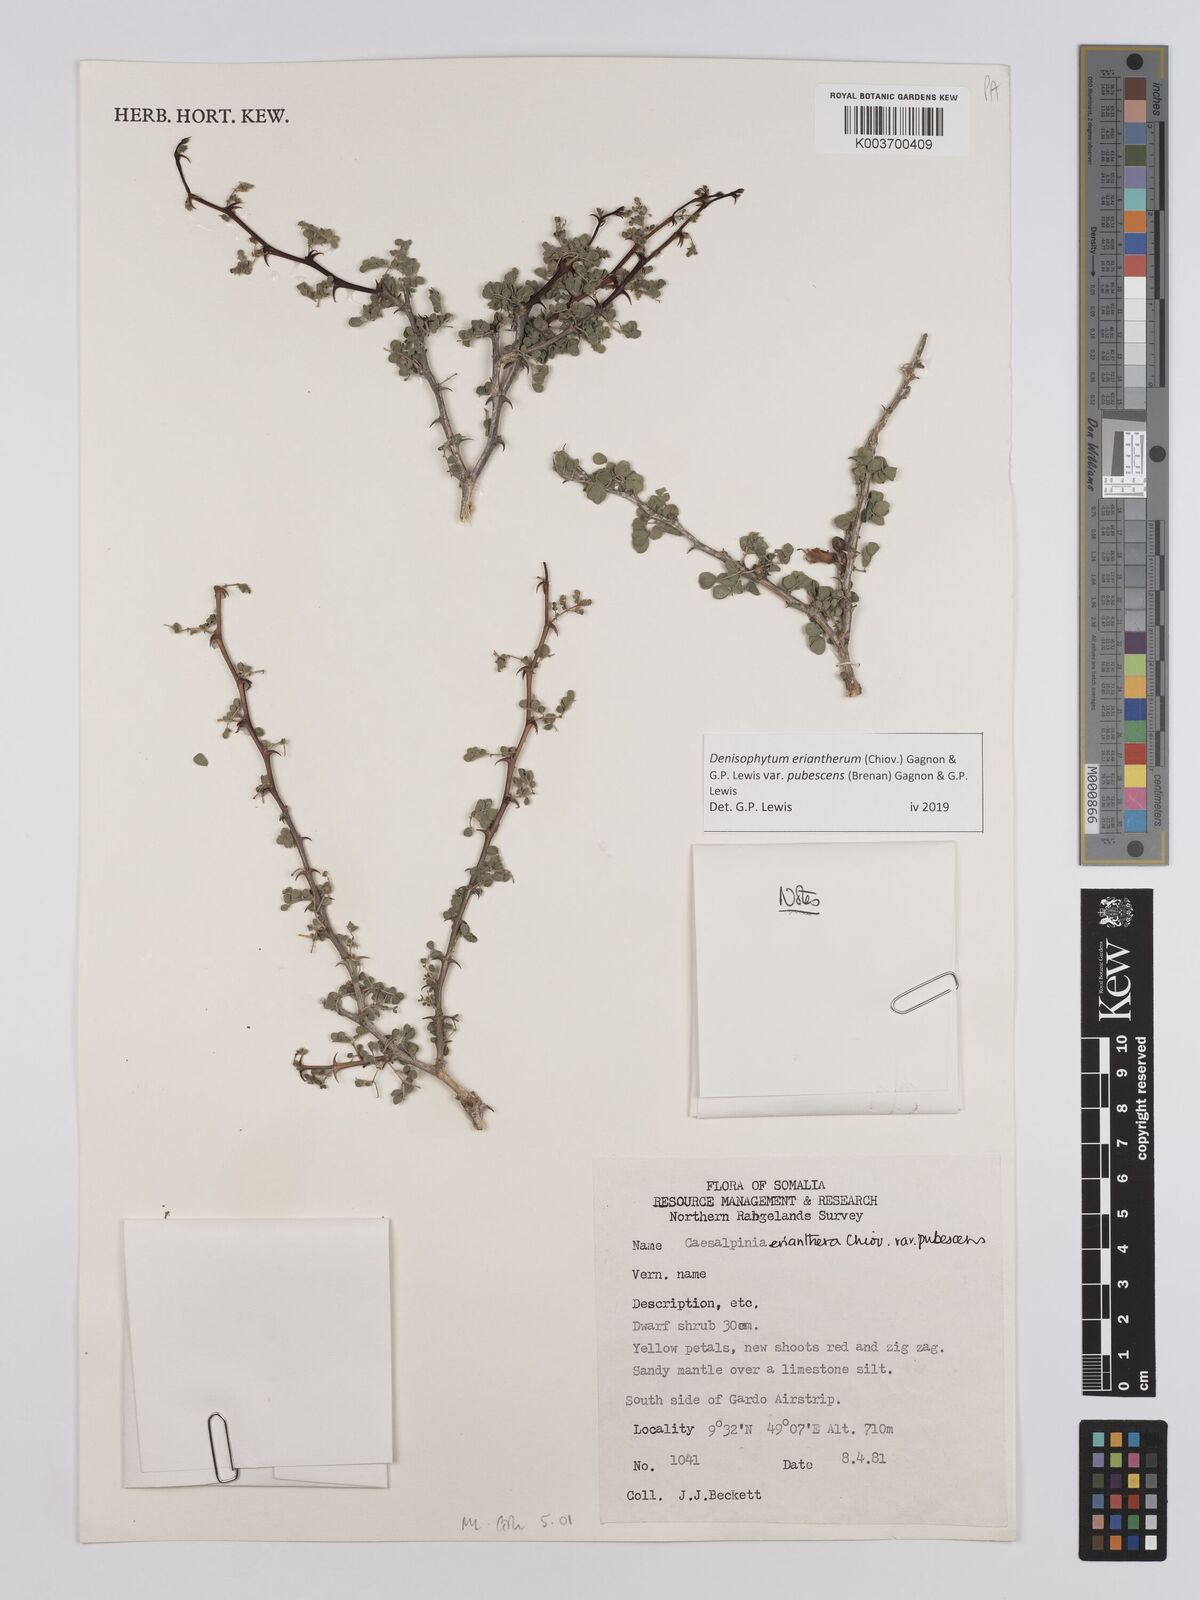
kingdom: Plantae
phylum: Tracheophyta
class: Magnoliopsida
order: Fabales
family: Fabaceae
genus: Denisophytum
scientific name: Denisophytum eriantherum
